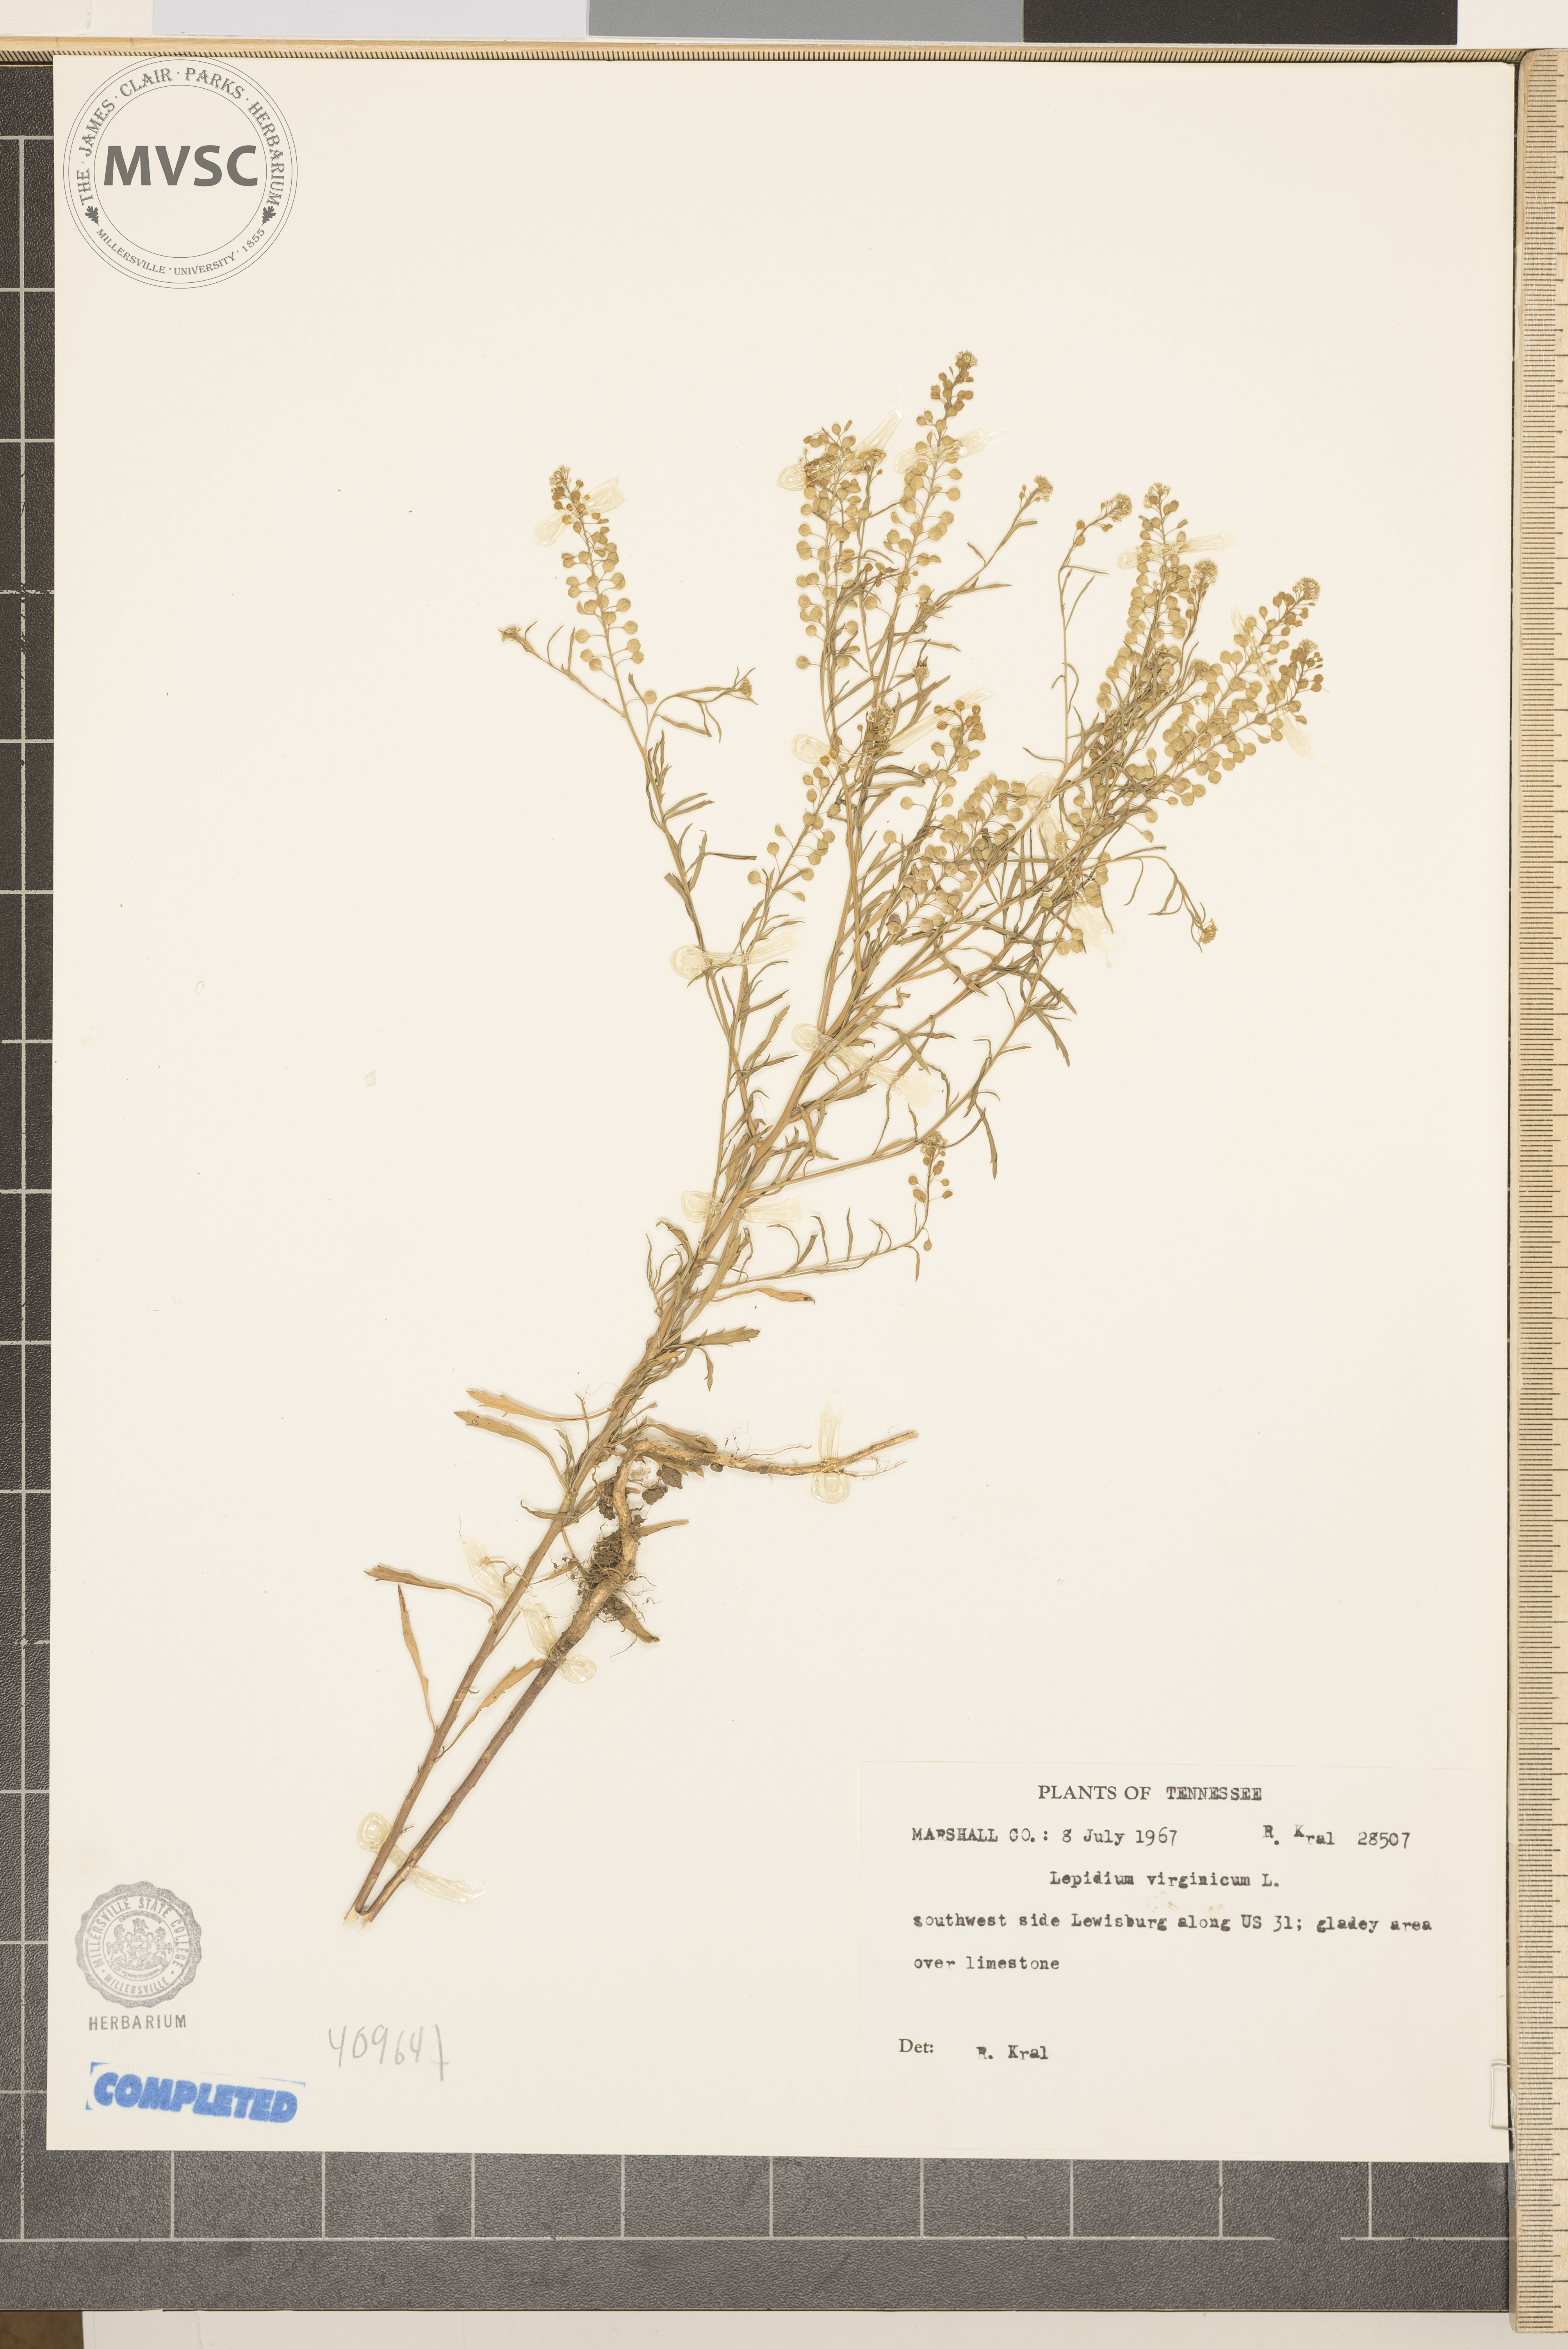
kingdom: Plantae
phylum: Tracheophyta
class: Magnoliopsida
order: Brassicales
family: Brassicaceae
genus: Lepidium
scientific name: Lepidium virginicum
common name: Virginia pepperweed
